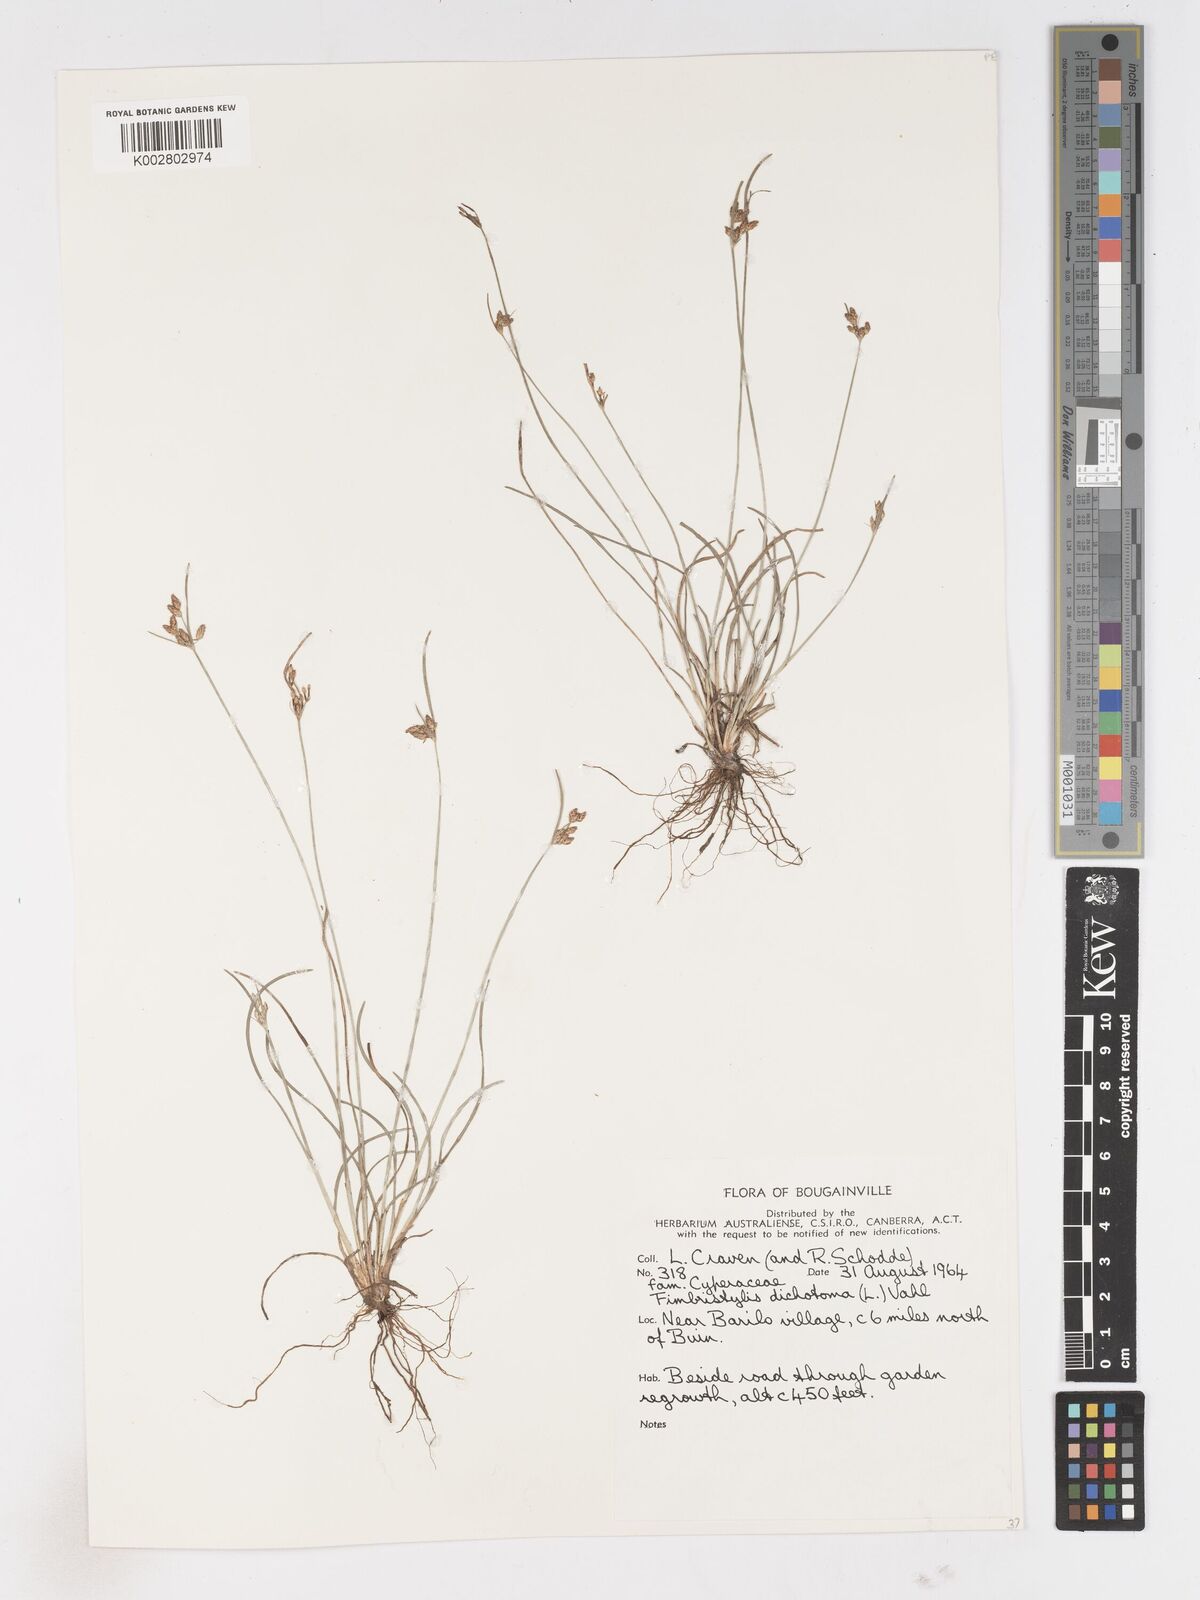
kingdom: Plantae
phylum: Tracheophyta
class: Liliopsida
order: Poales
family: Cyperaceae
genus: Fimbristylis
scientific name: Fimbristylis dichotoma
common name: Forked fimbry
